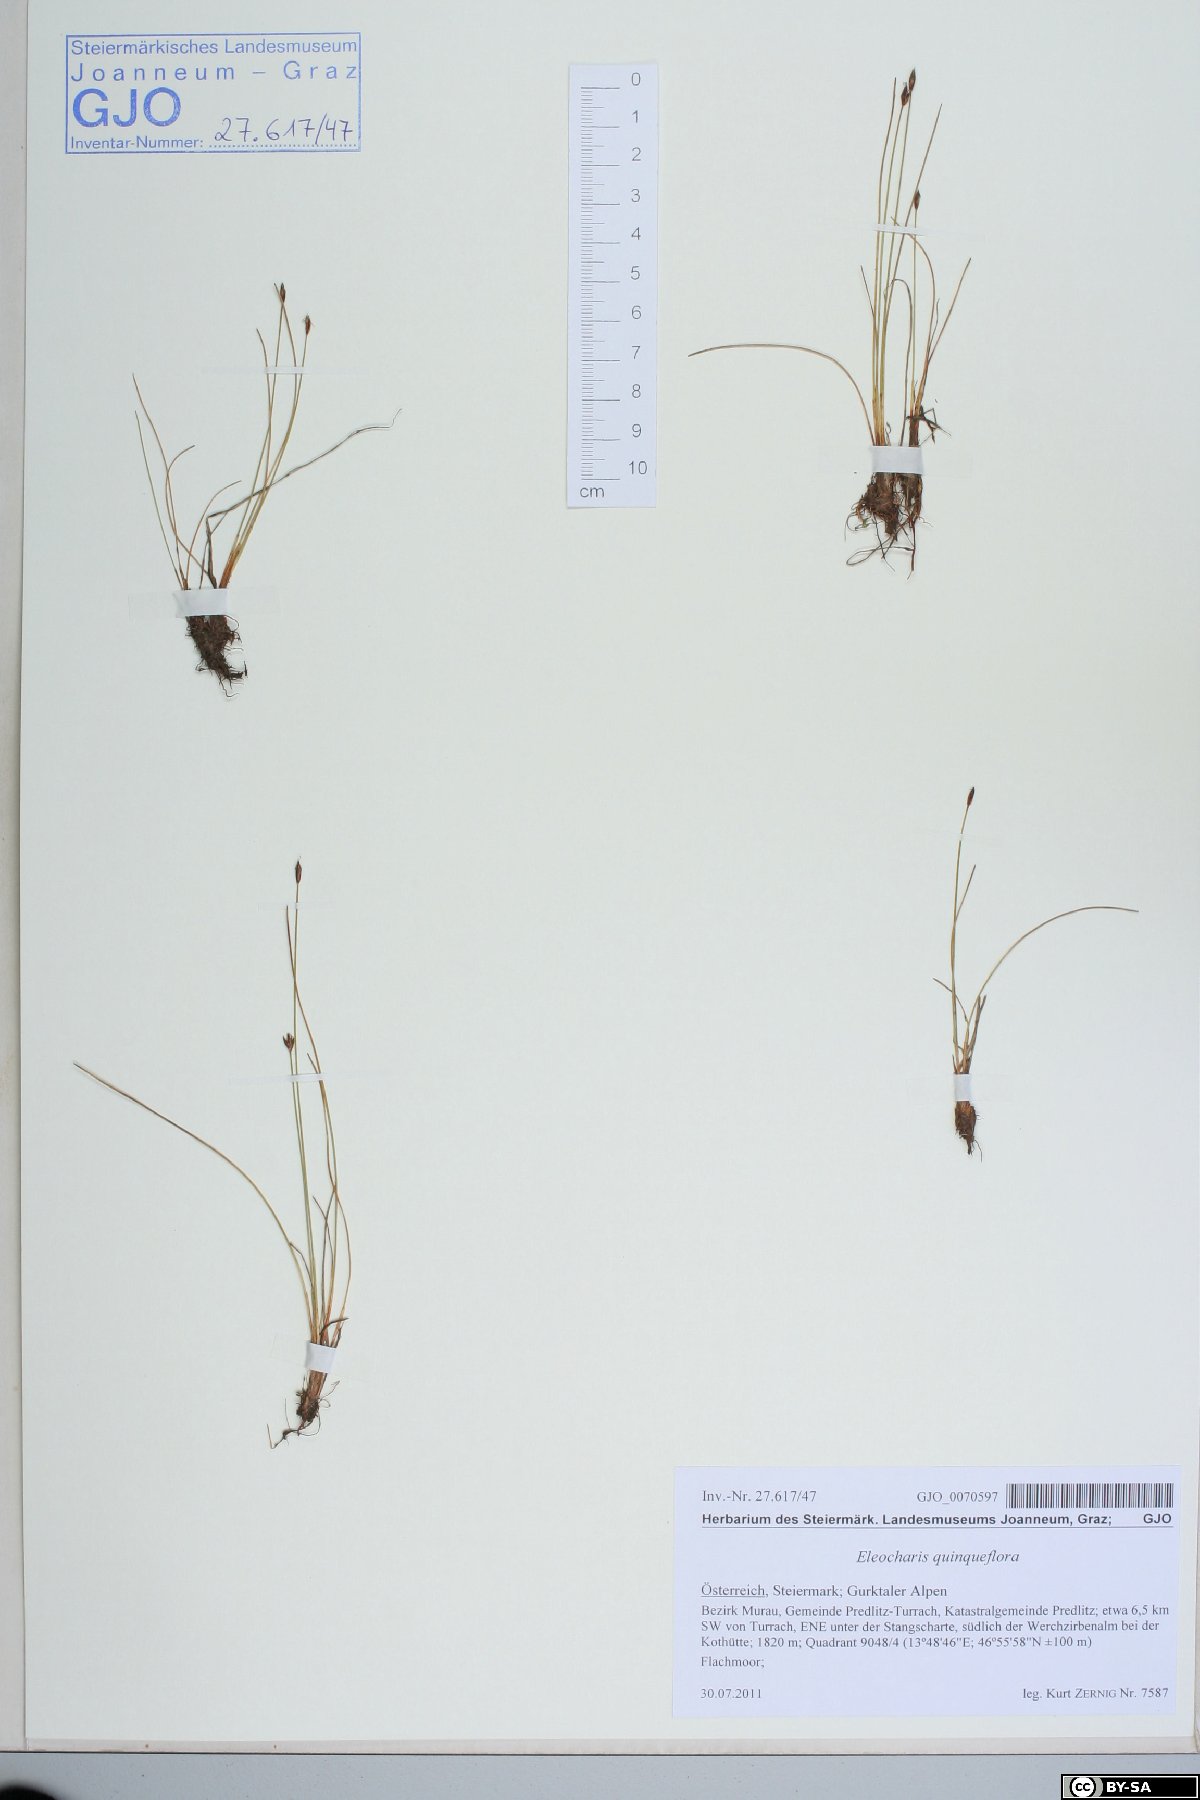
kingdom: Plantae
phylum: Tracheophyta
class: Liliopsida
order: Poales
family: Cyperaceae
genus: Eleocharis
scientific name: Eleocharis quinqueflora
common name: Few-flowered spike-rush
